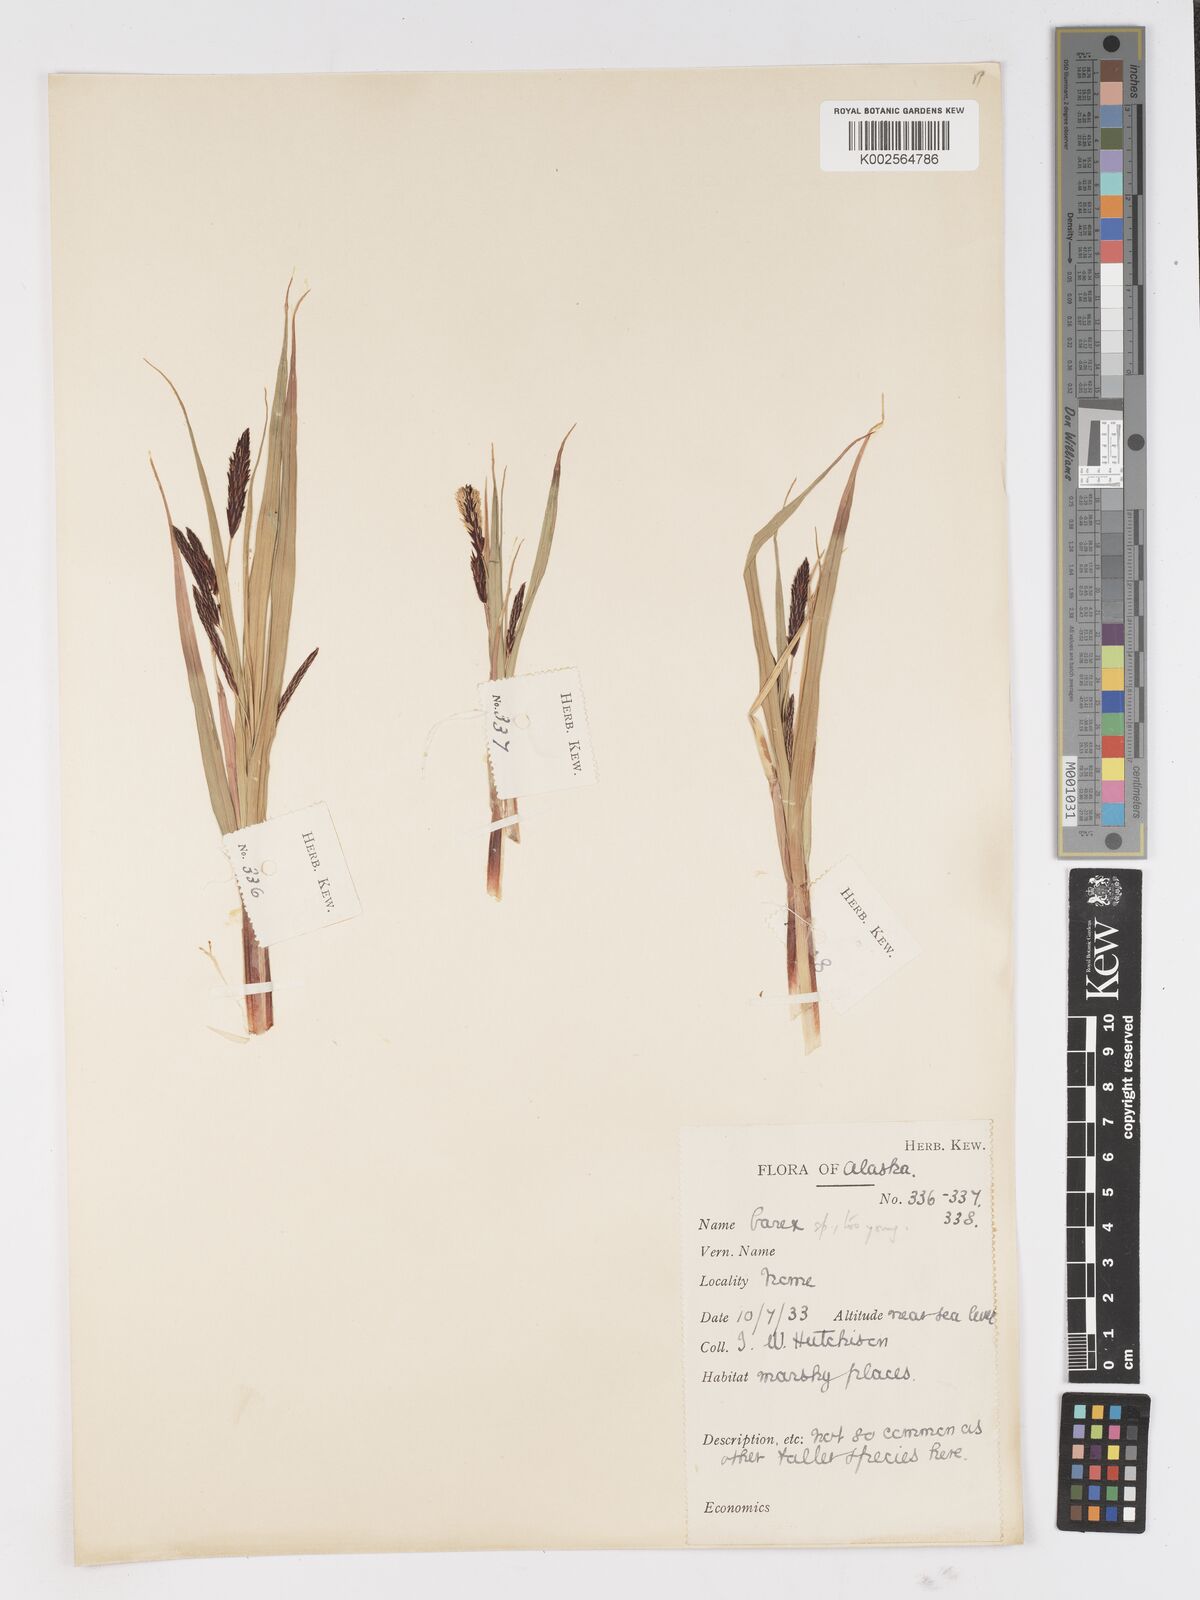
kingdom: Plantae
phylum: Tracheophyta
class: Liliopsida
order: Poales
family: Cyperaceae
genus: Carex
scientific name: Carex
